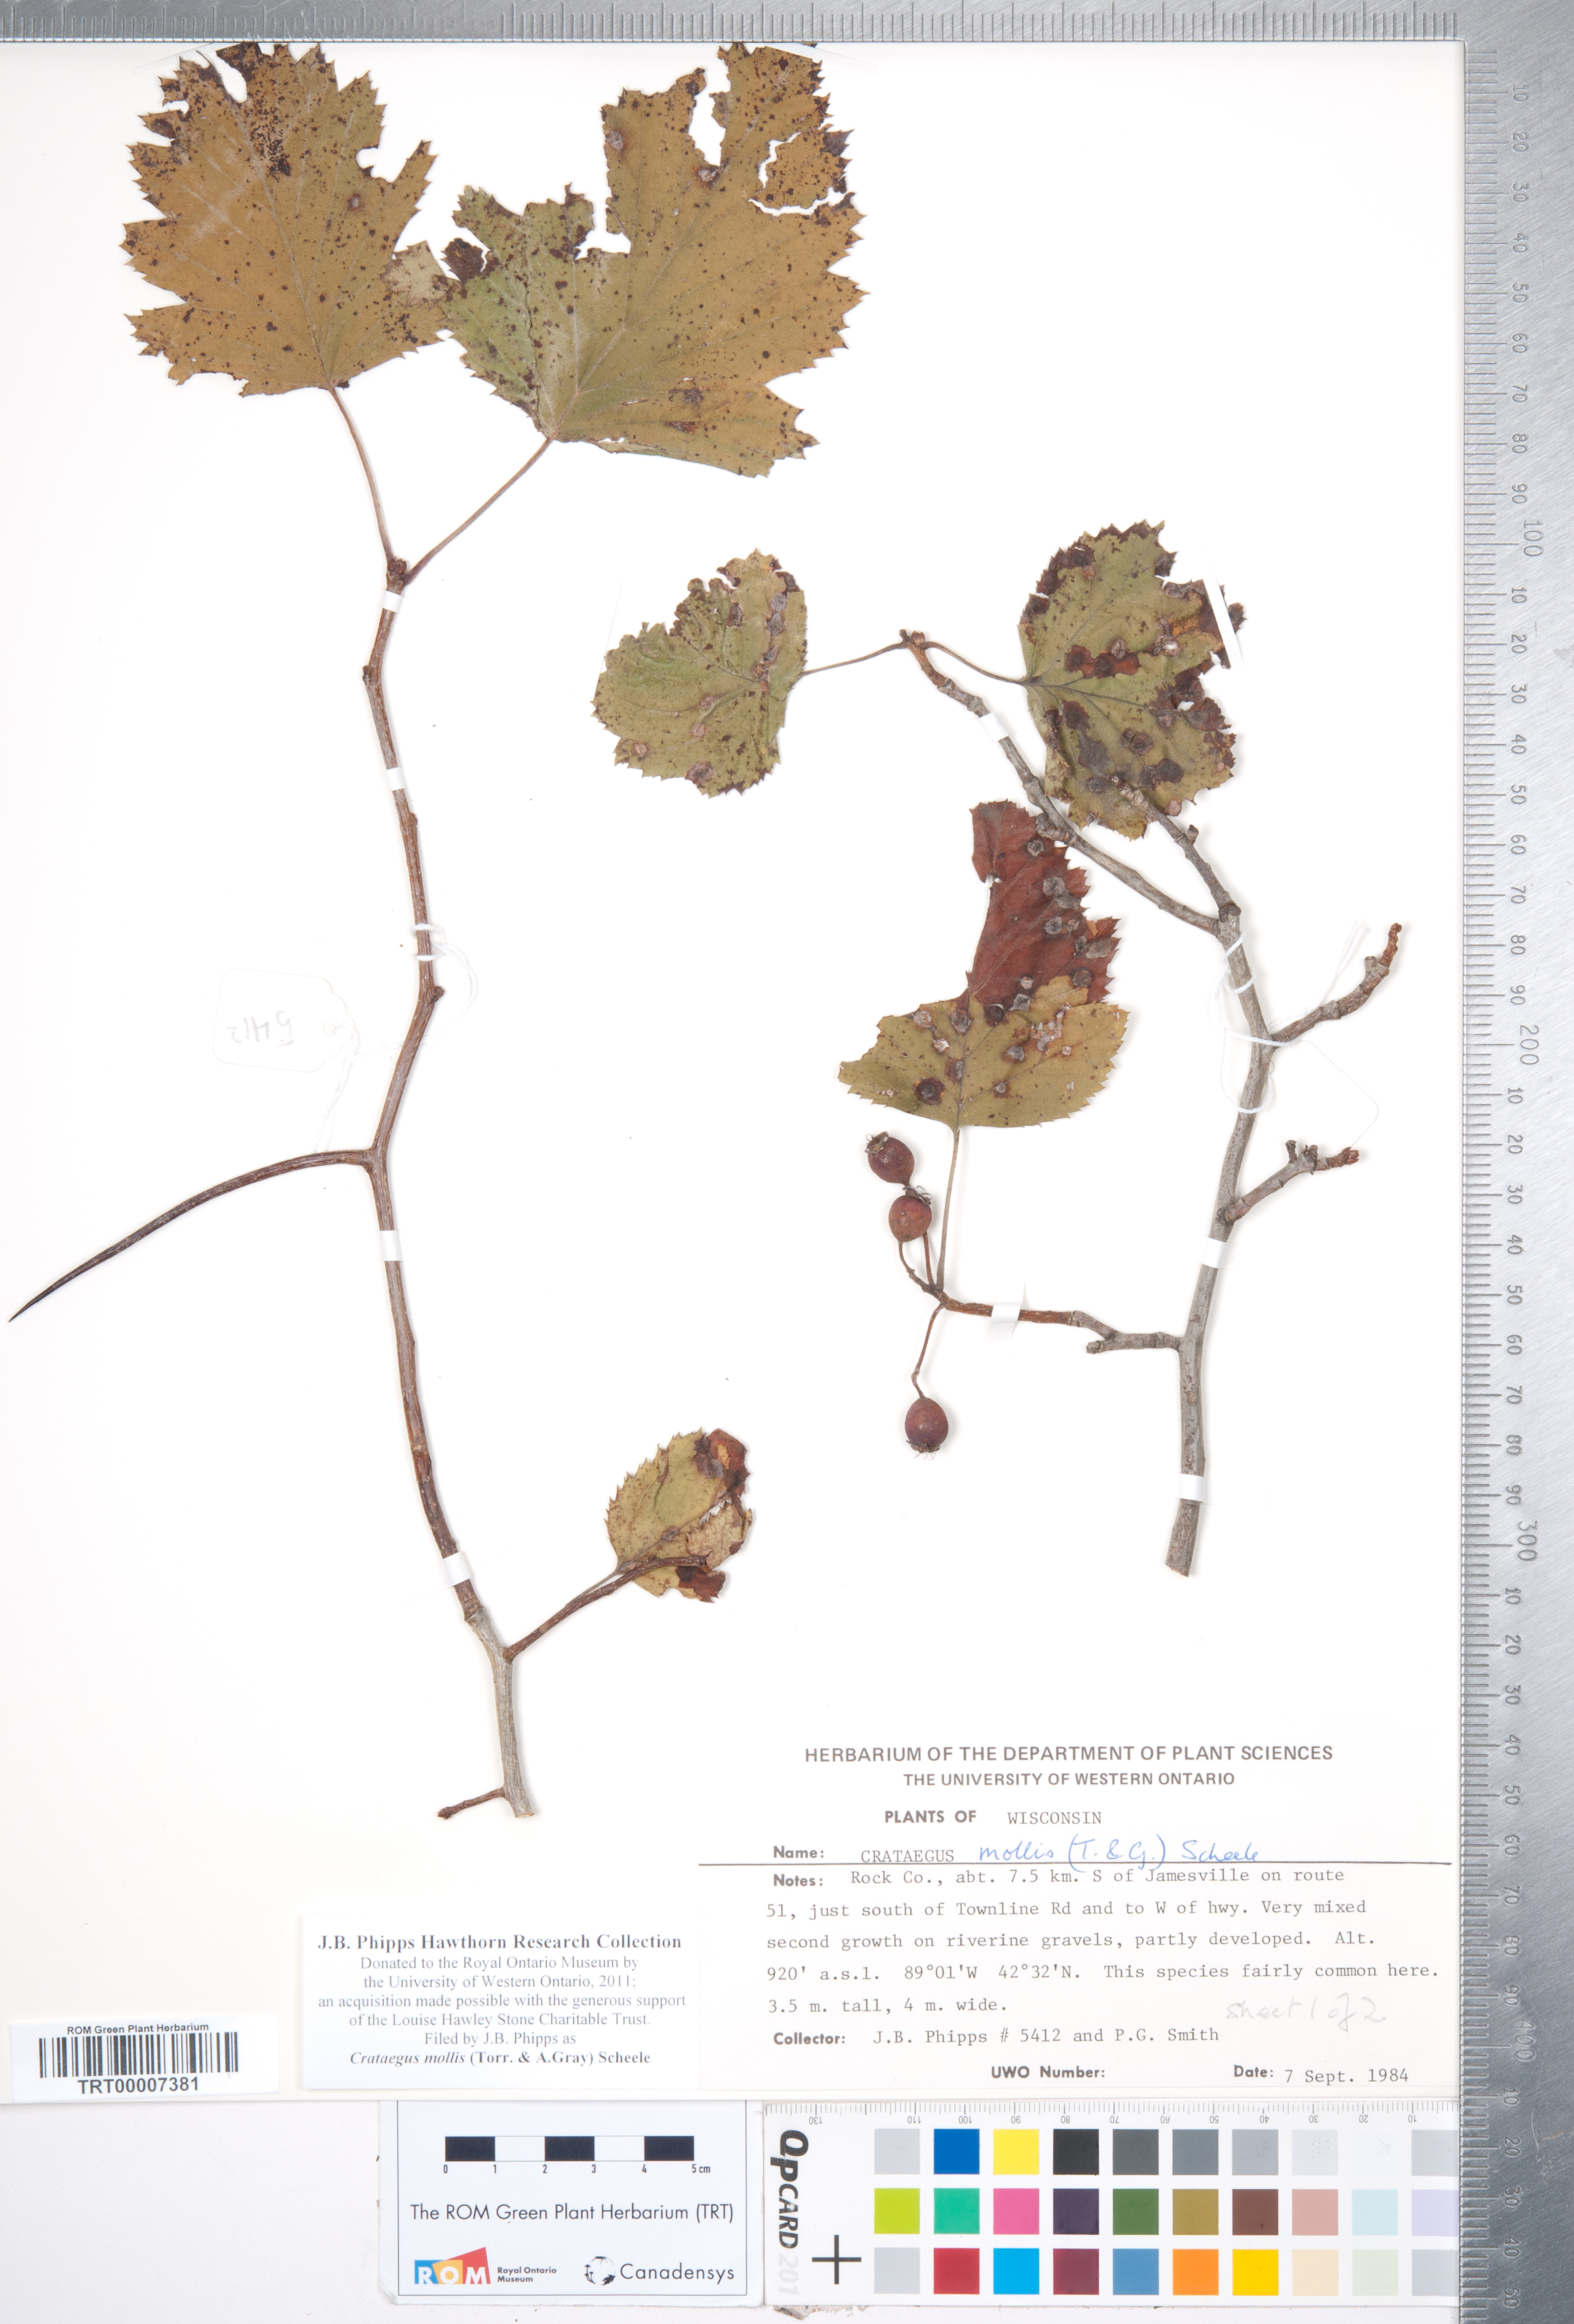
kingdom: Plantae
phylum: Tracheophyta
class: Magnoliopsida
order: Rosales
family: Rosaceae
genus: Crataegus
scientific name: Crataegus mollis
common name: Downy hawthorn
